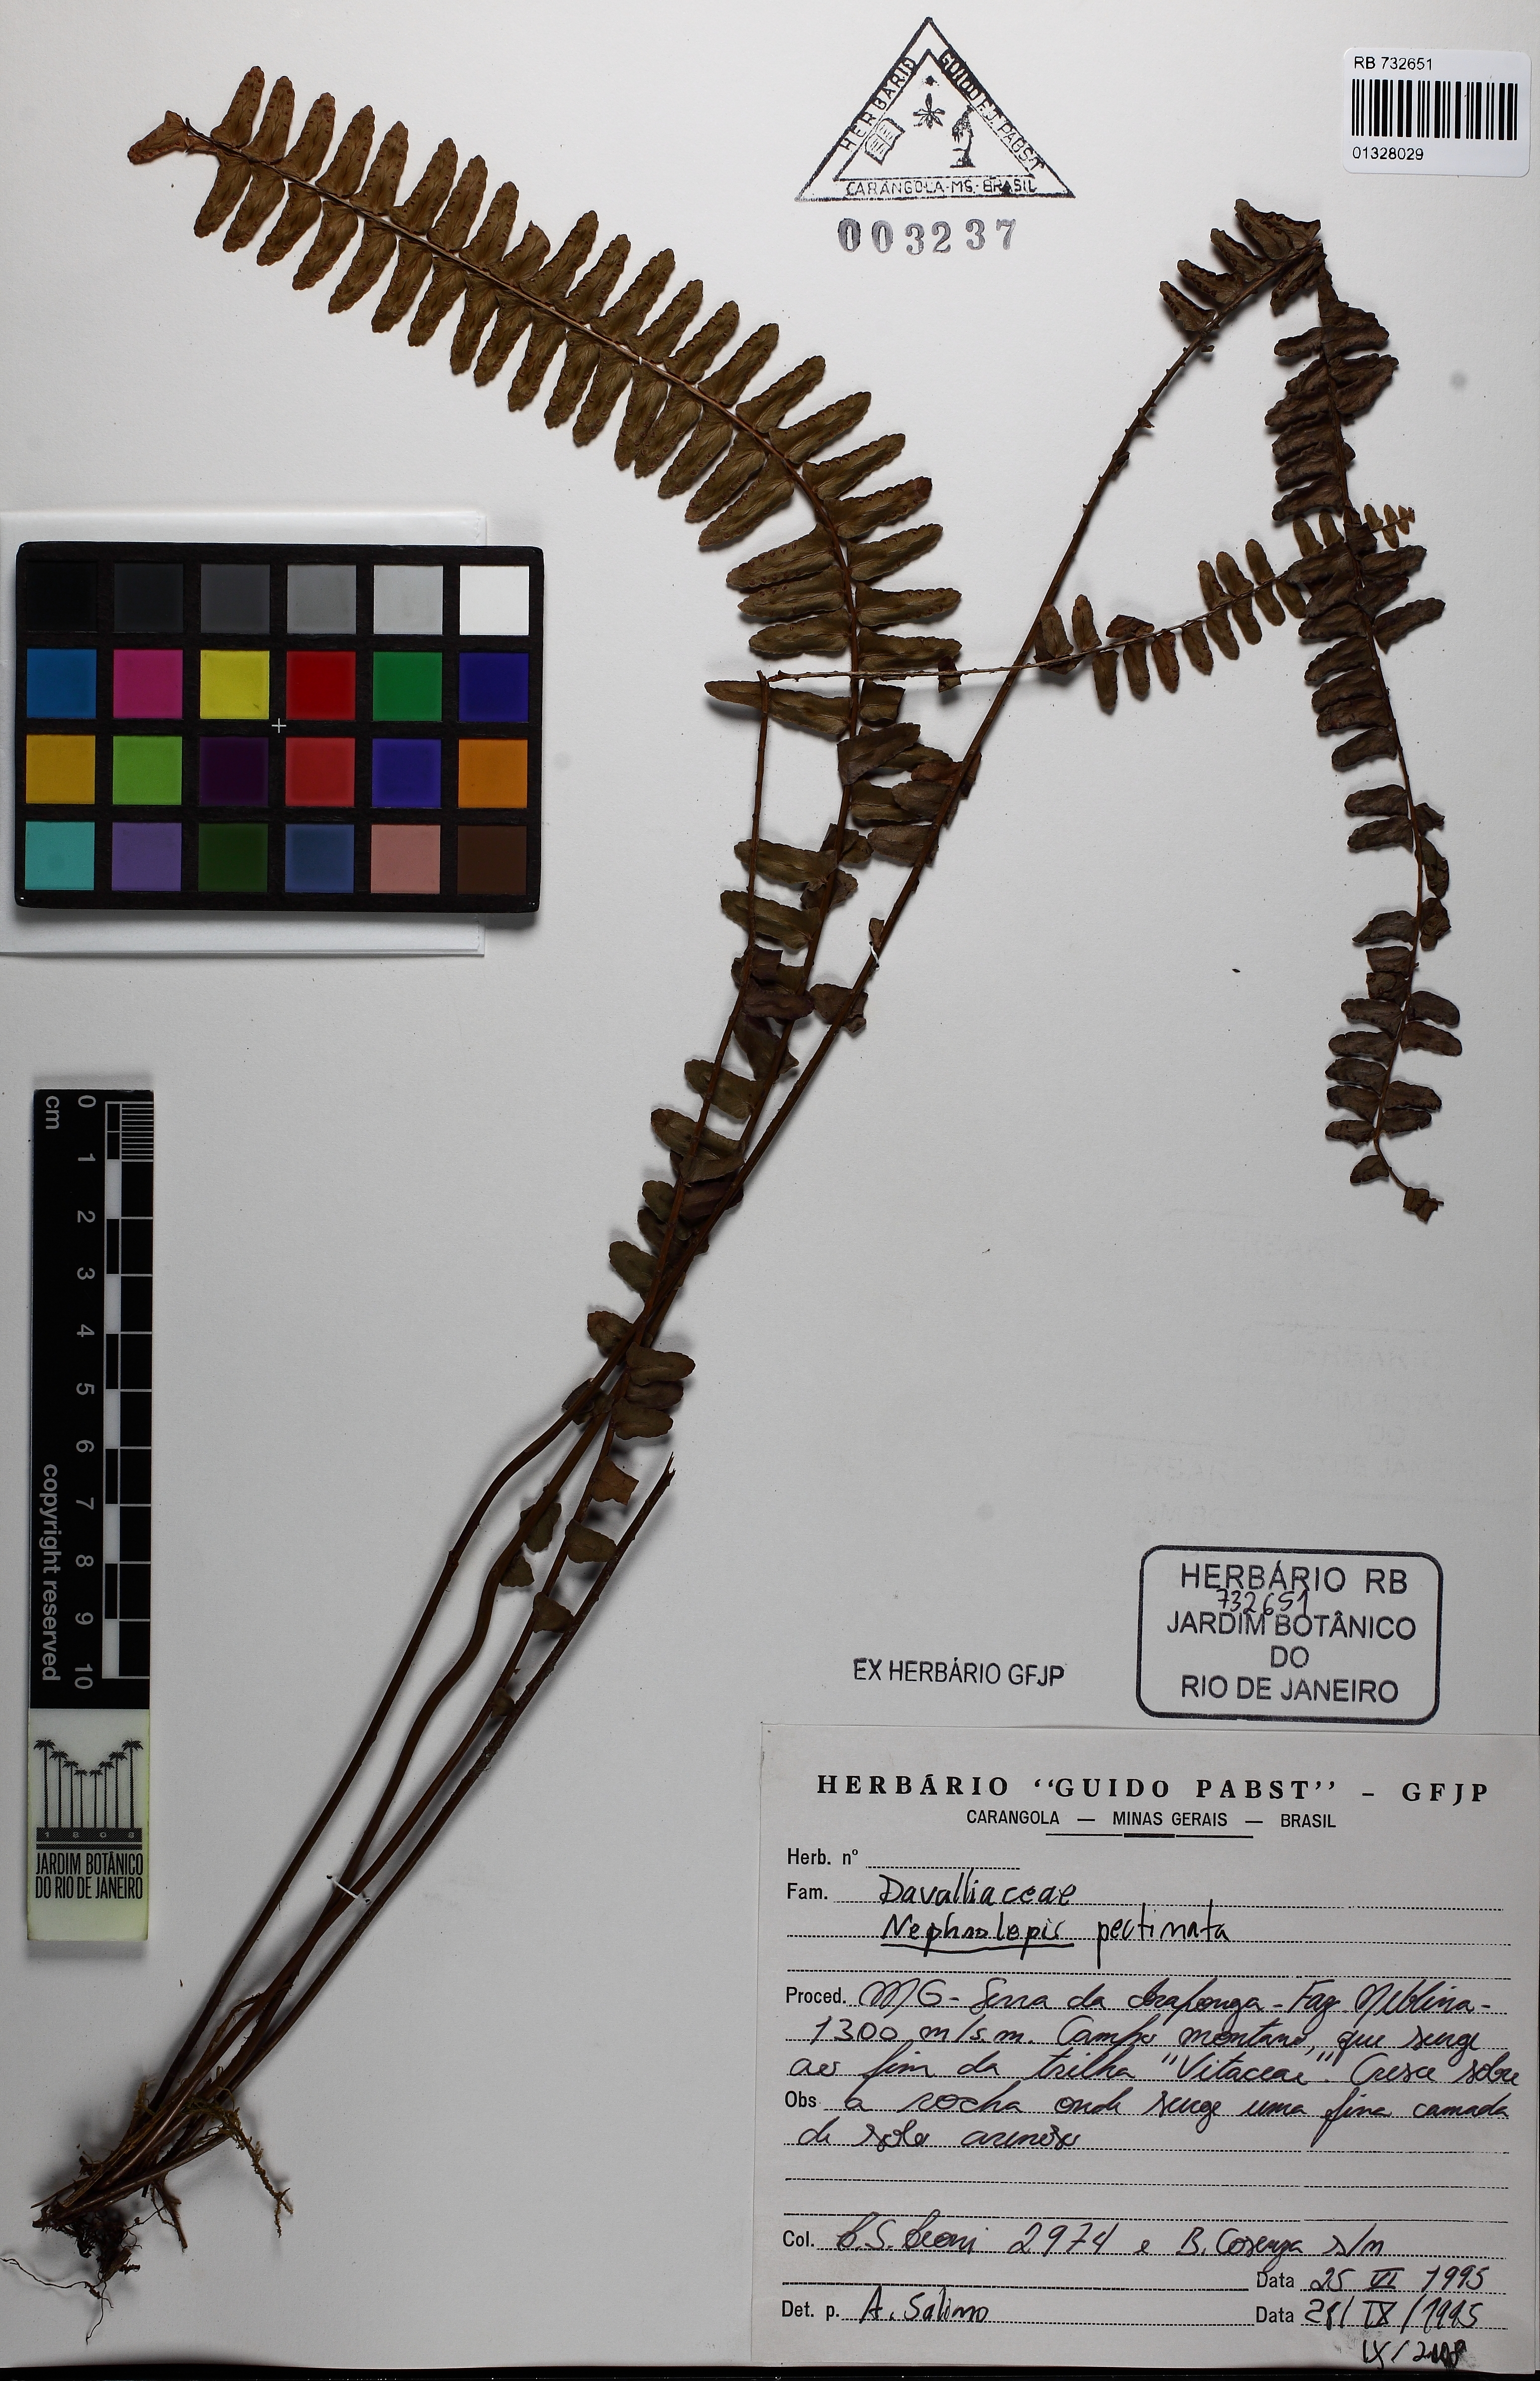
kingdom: Plantae
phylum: Tracheophyta
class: Polypodiopsida
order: Polypodiales
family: Nephrolepidaceae
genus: Nephrolepis
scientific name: Nephrolepis pectinata
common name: Basket fern
